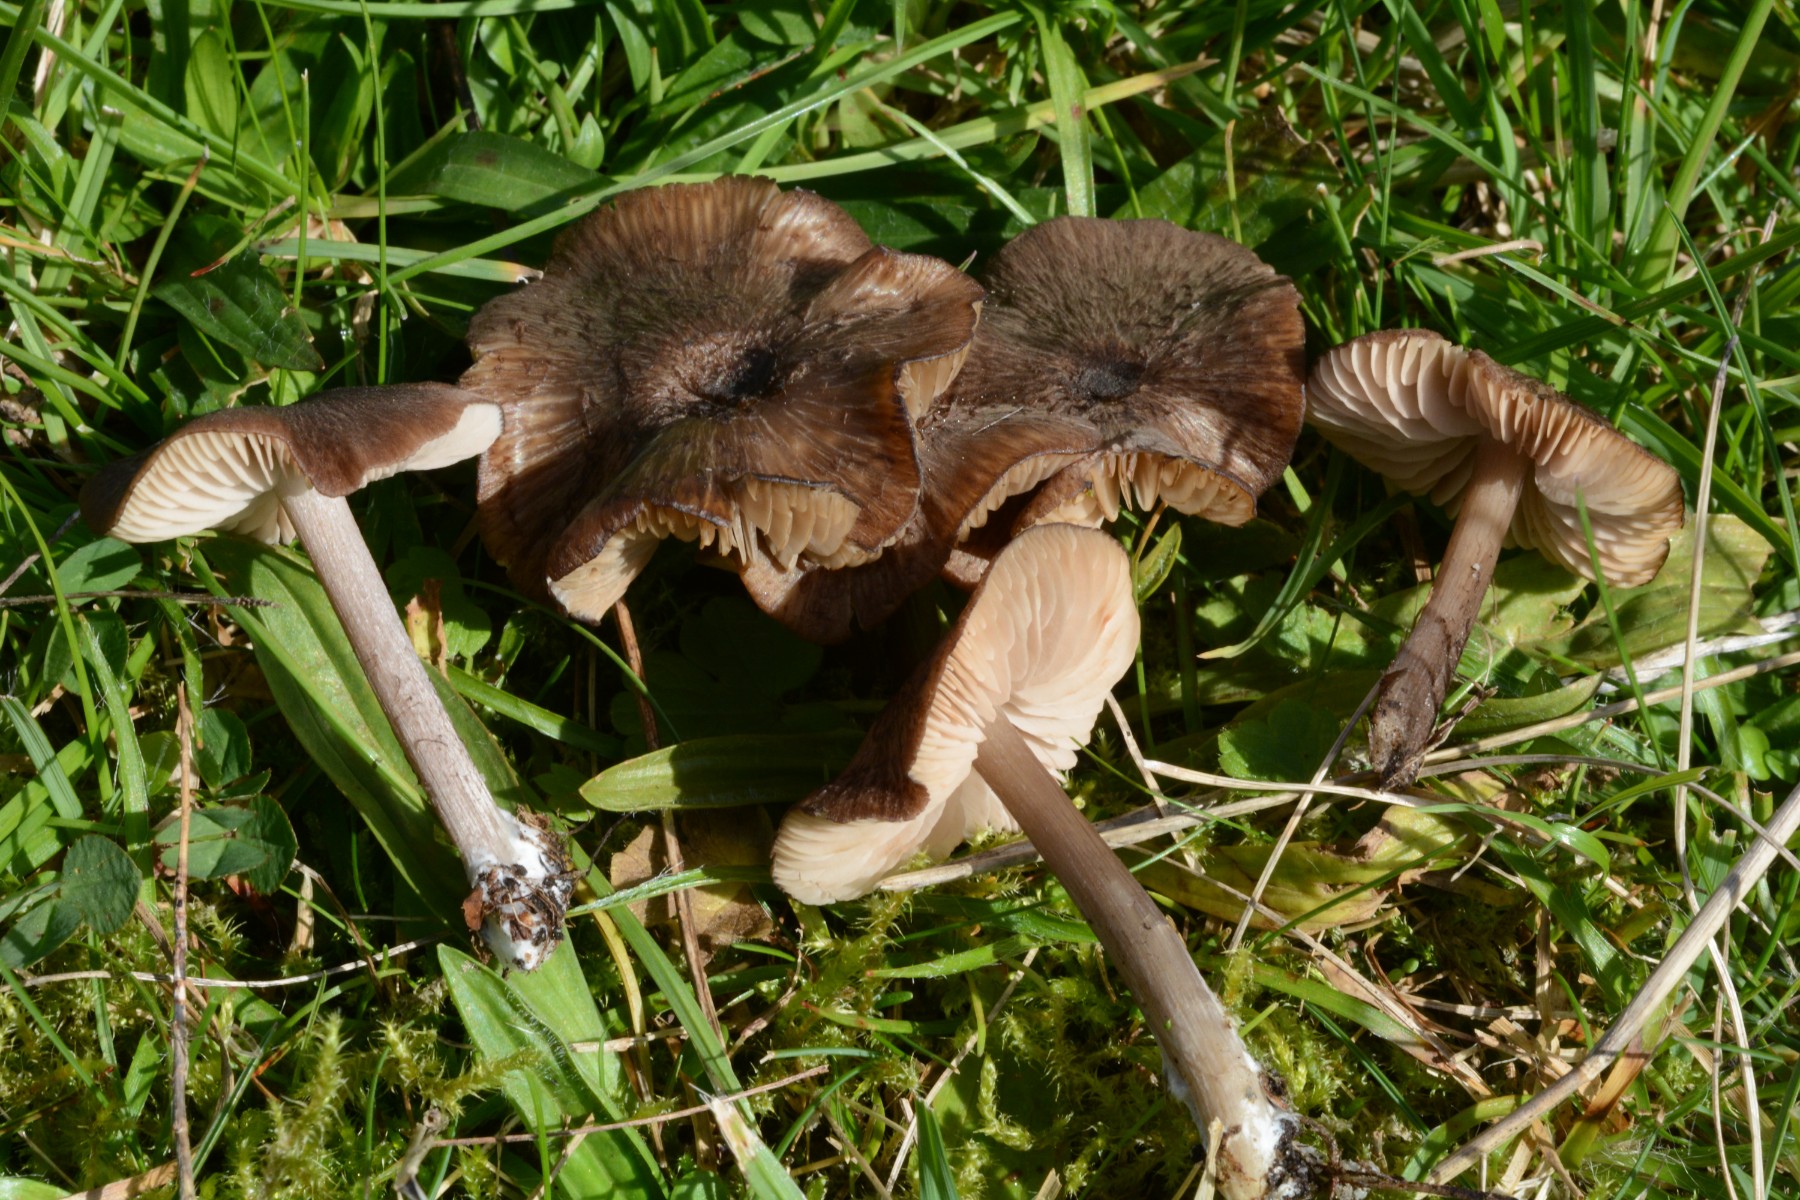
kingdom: Fungi
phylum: Basidiomycota
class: Agaricomycetes
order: Agaricales
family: Entolomataceae
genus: Entoloma
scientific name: Entoloma
